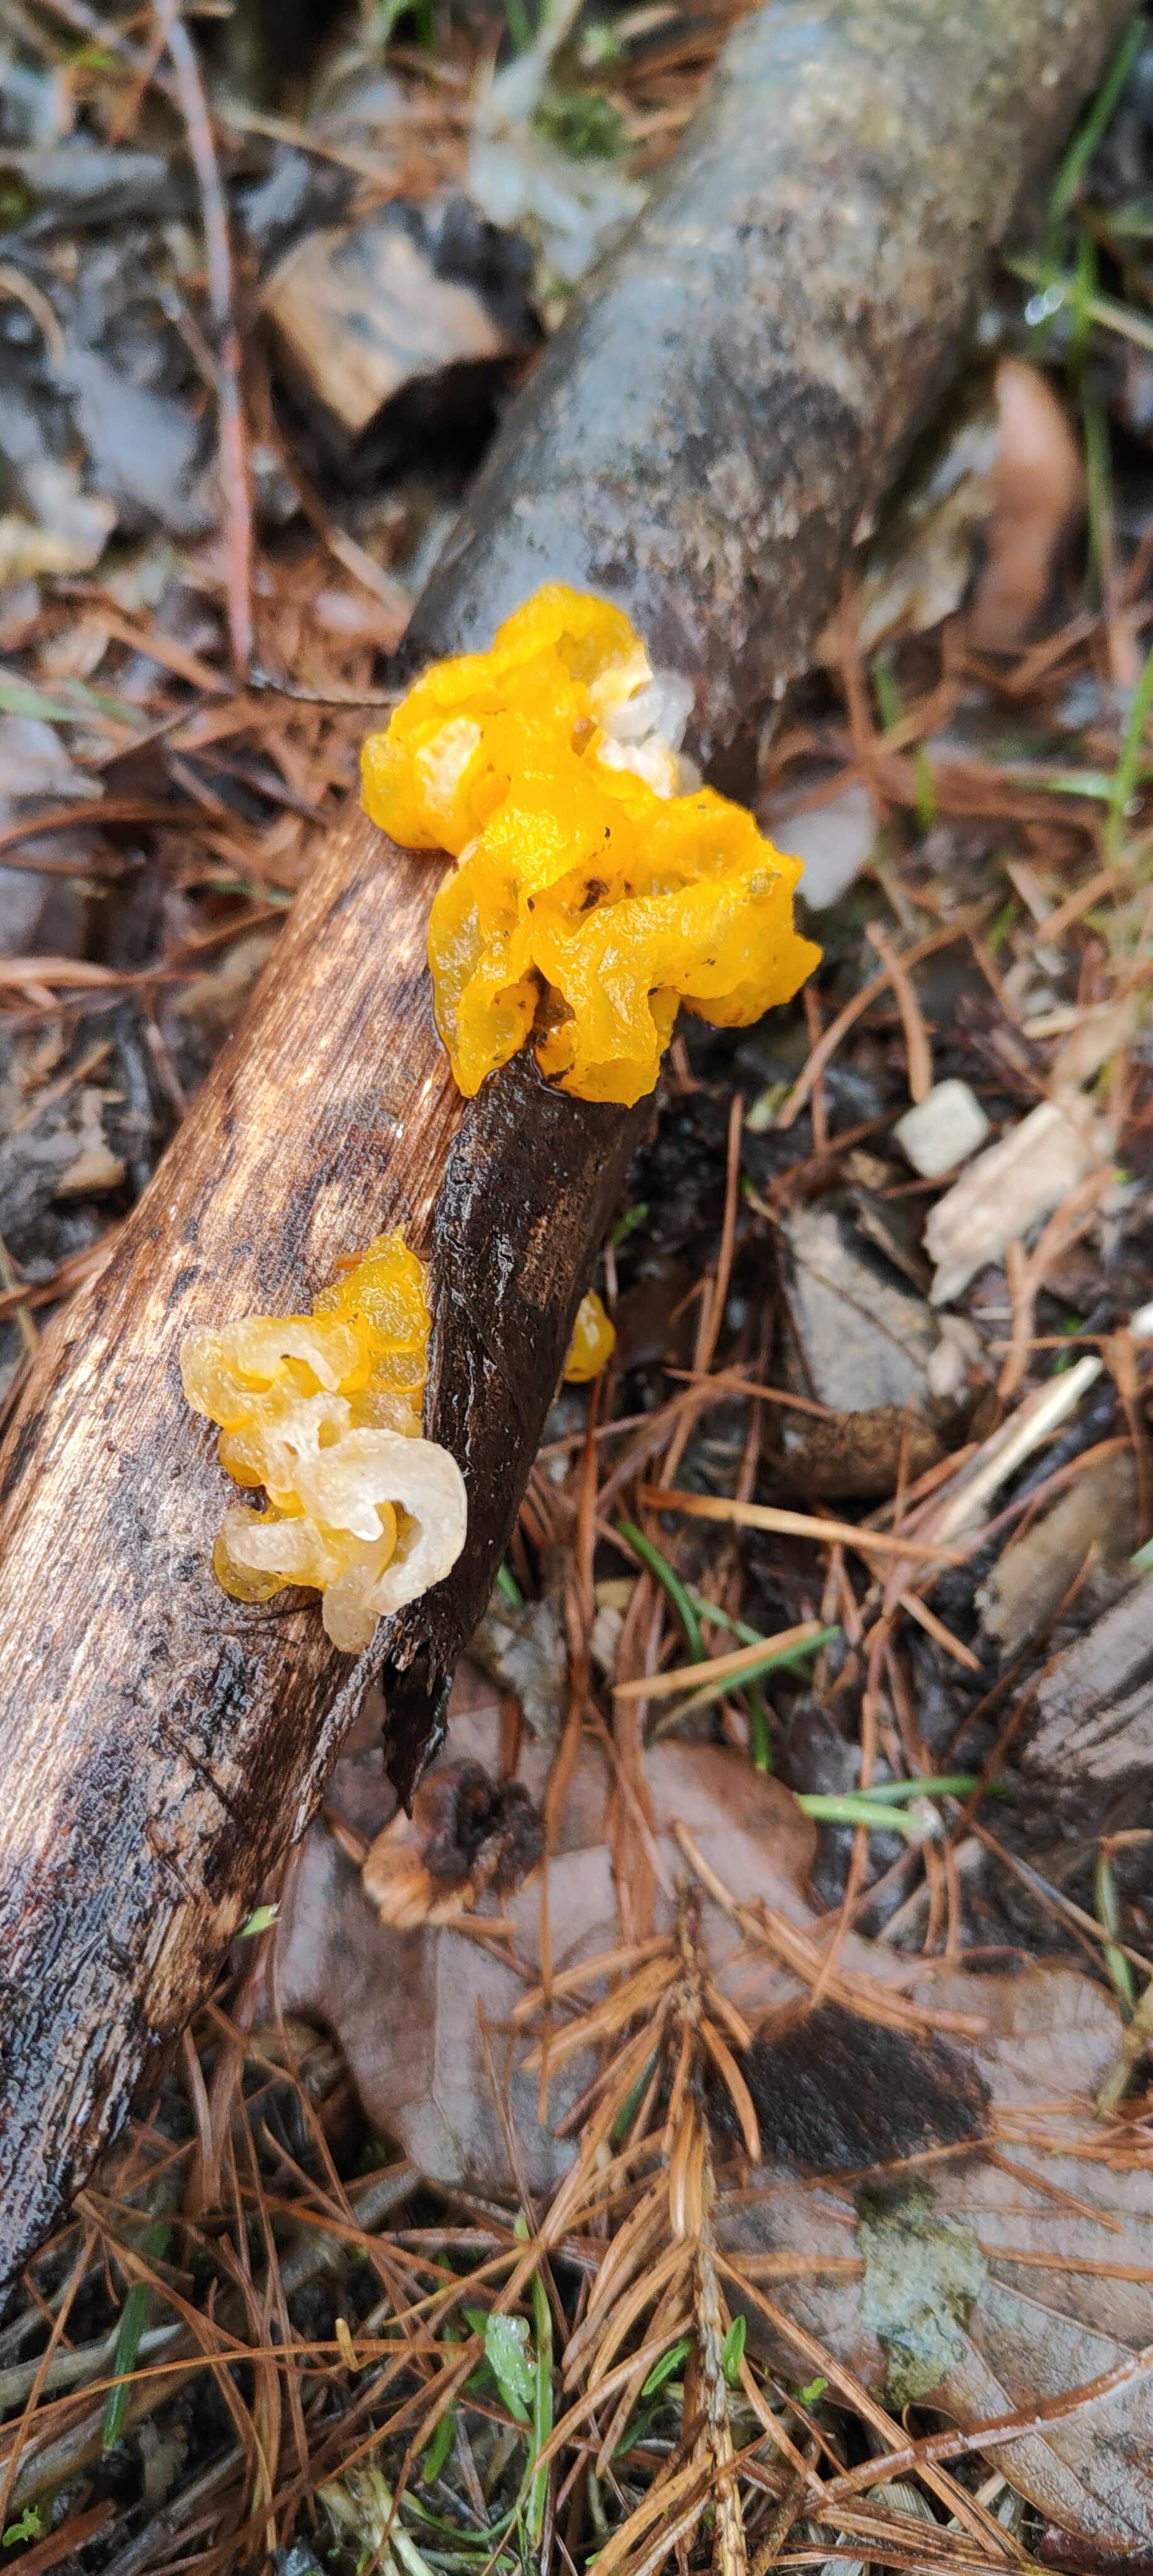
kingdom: Fungi
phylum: Basidiomycota
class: Tremellomycetes
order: Tremellales
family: Tremellaceae
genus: Tremella
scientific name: Tremella mesenterica
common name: gul bævresvamp
